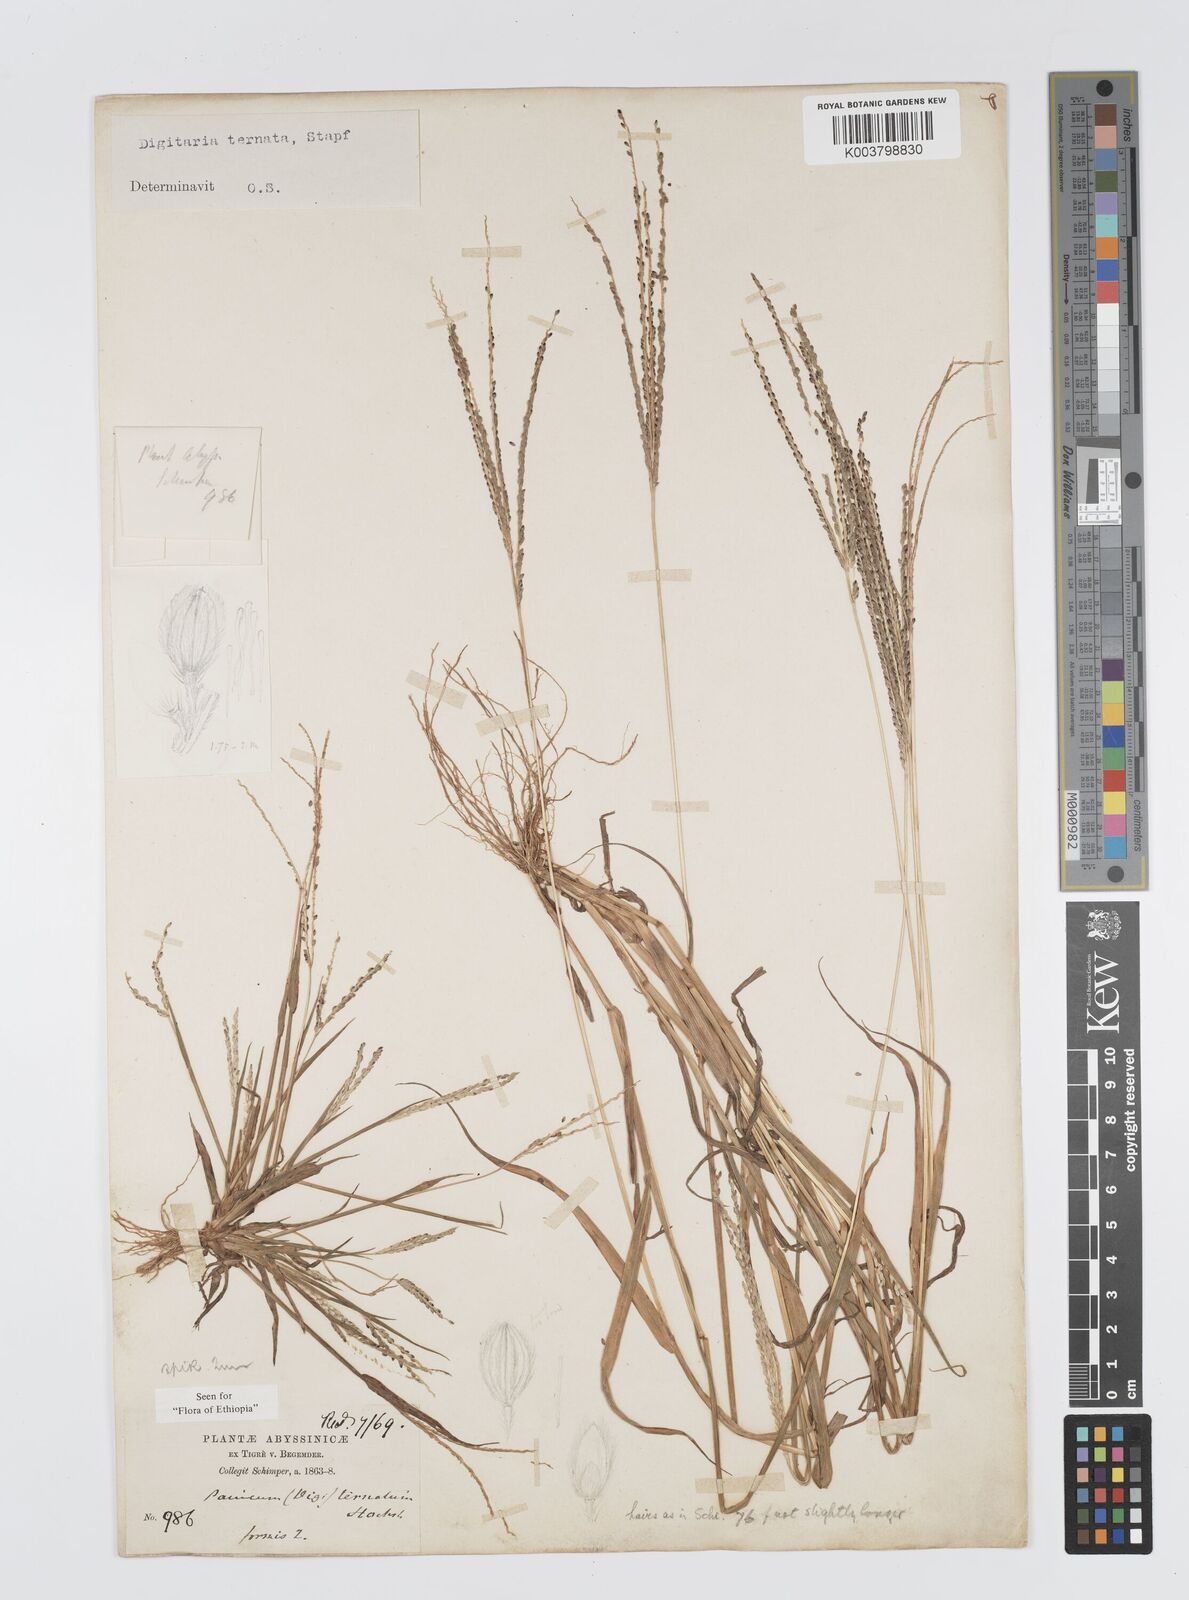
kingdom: Plantae
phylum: Tracheophyta
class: Liliopsida
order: Poales
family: Poaceae
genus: Digitaria
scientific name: Digitaria ternata
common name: Blackseed crabgrass
